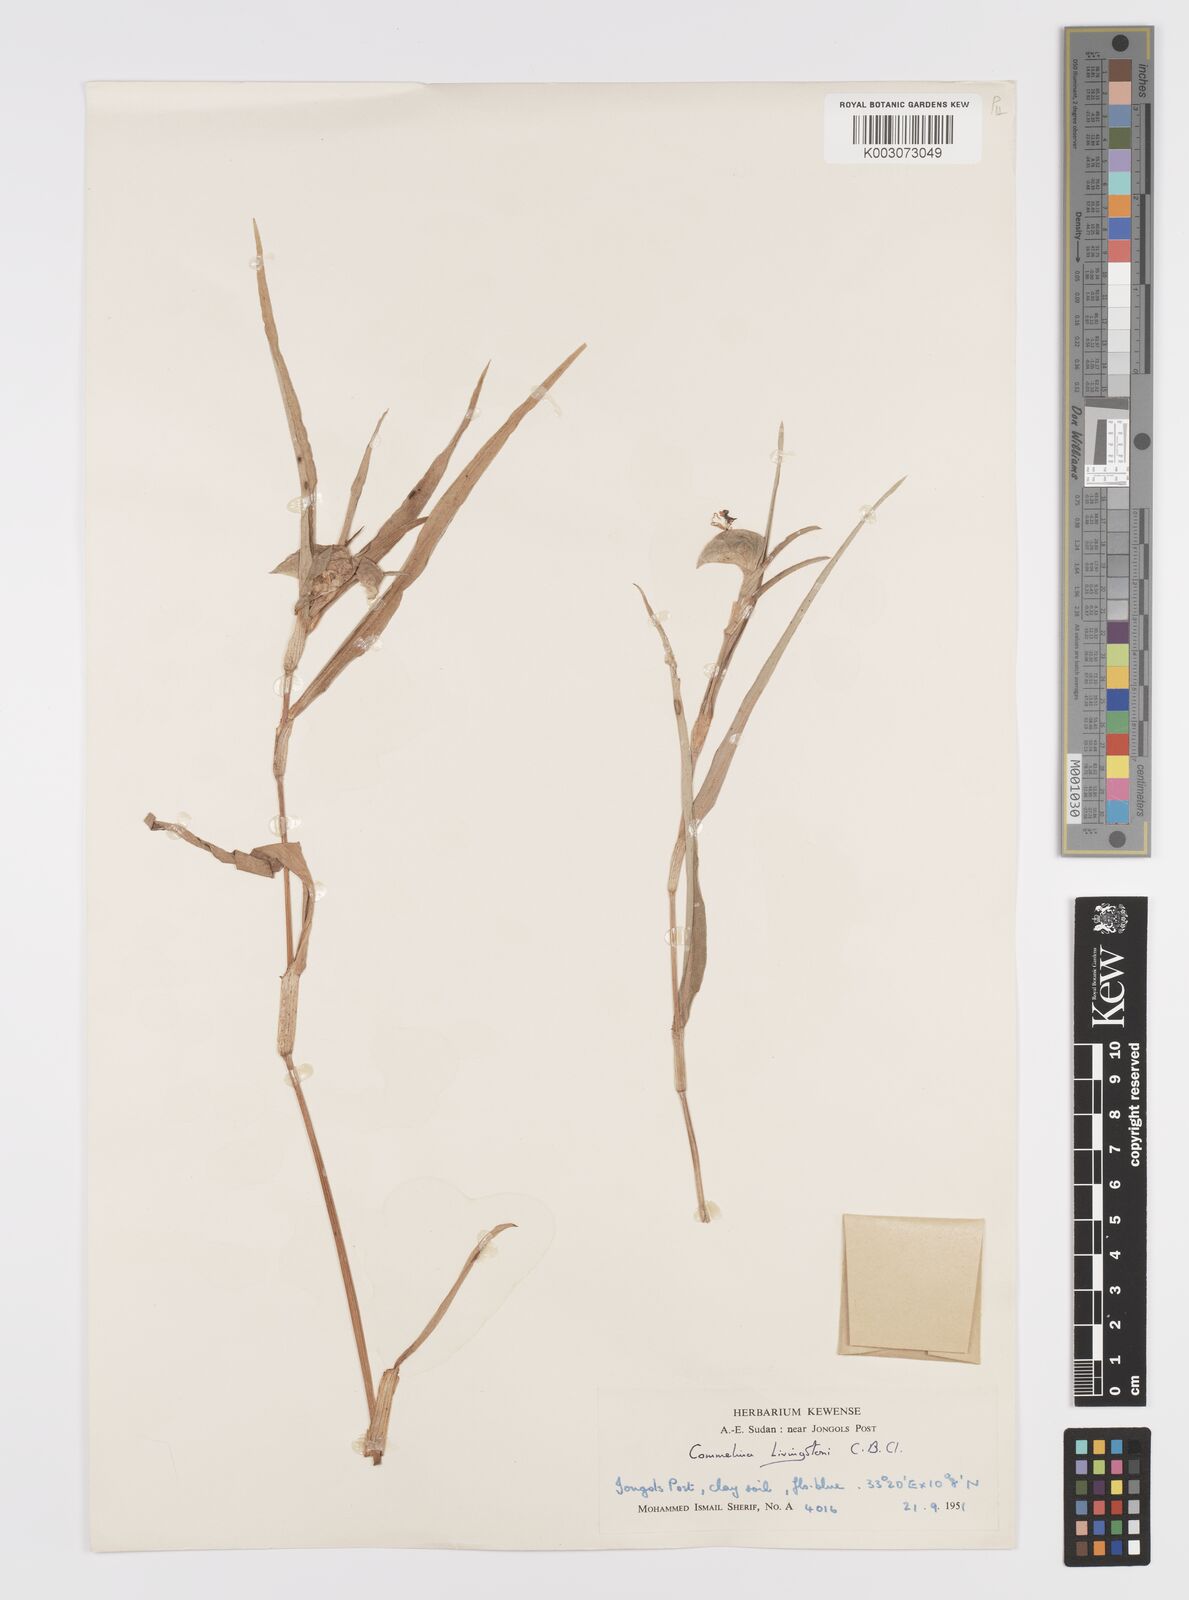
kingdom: Plantae
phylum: Tracheophyta
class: Liliopsida
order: Commelinales
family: Commelinaceae
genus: Commelina
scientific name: Commelina erecta
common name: Blousel blommetjie
